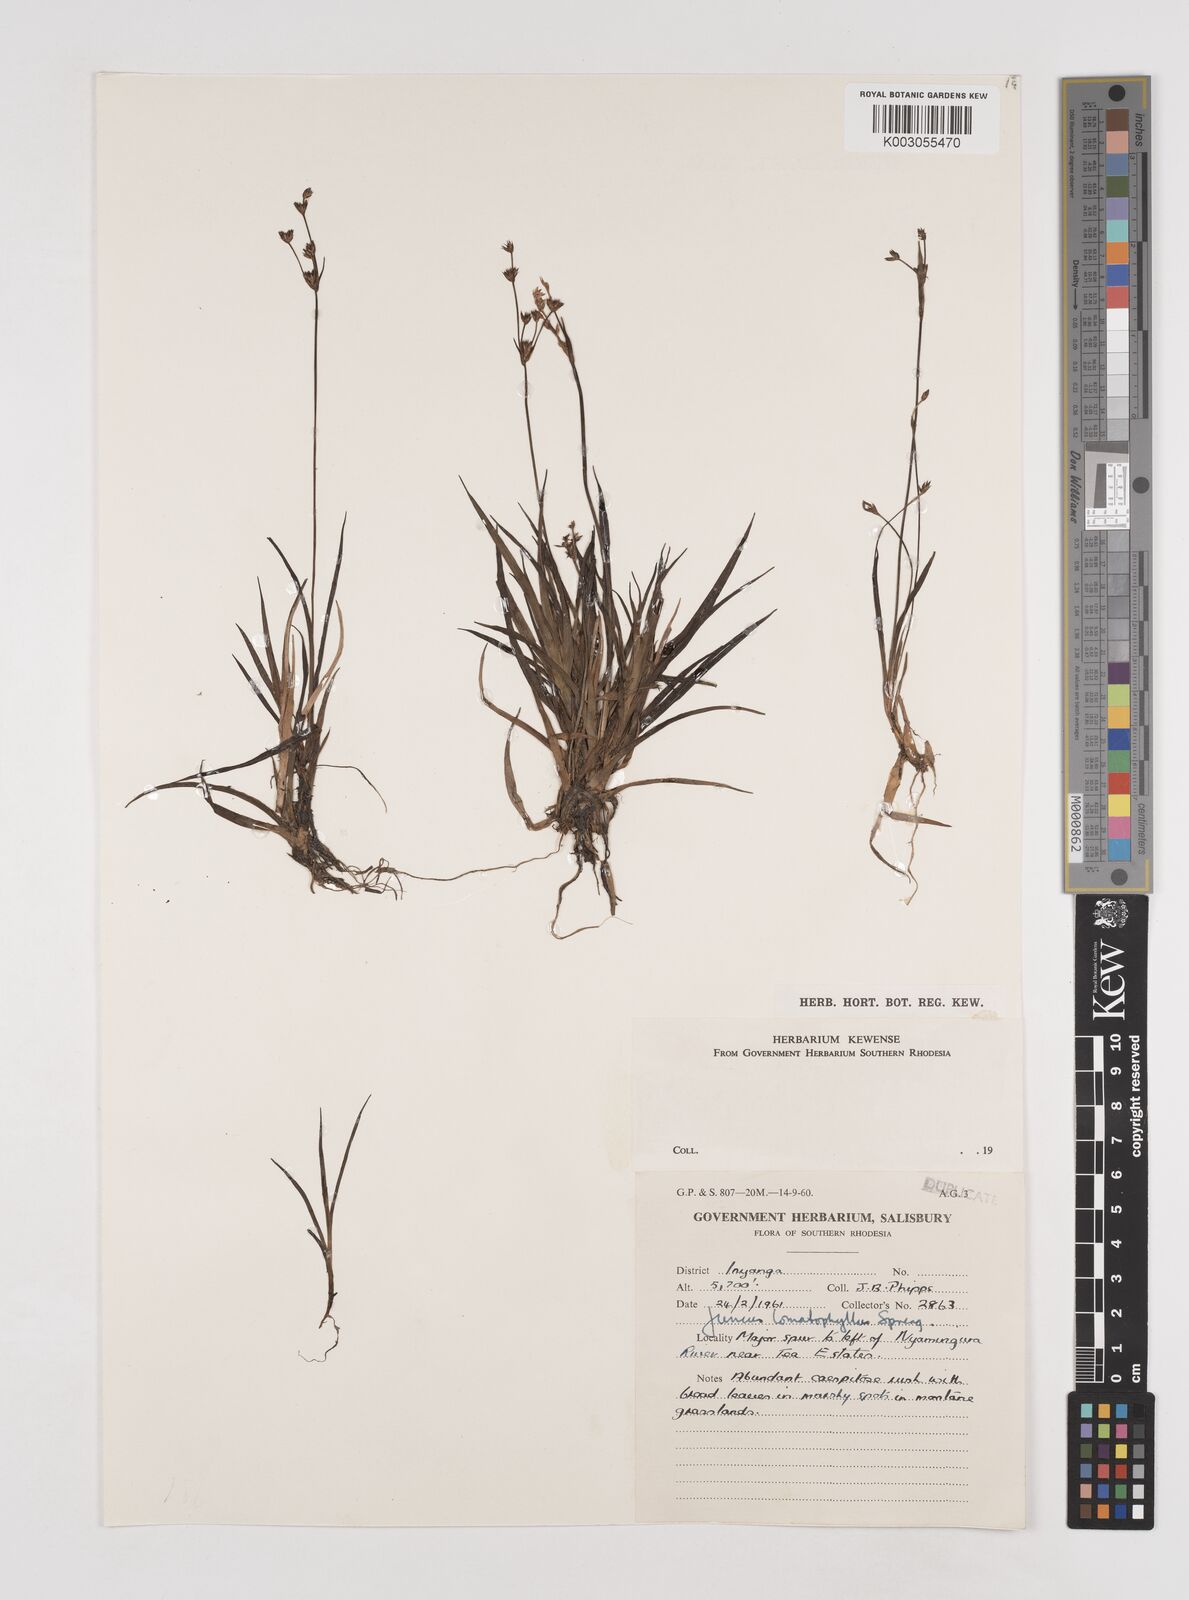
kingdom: Plantae
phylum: Tracheophyta
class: Liliopsida
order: Poales
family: Juncaceae
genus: Juncus
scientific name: Juncus lomatophyllus
